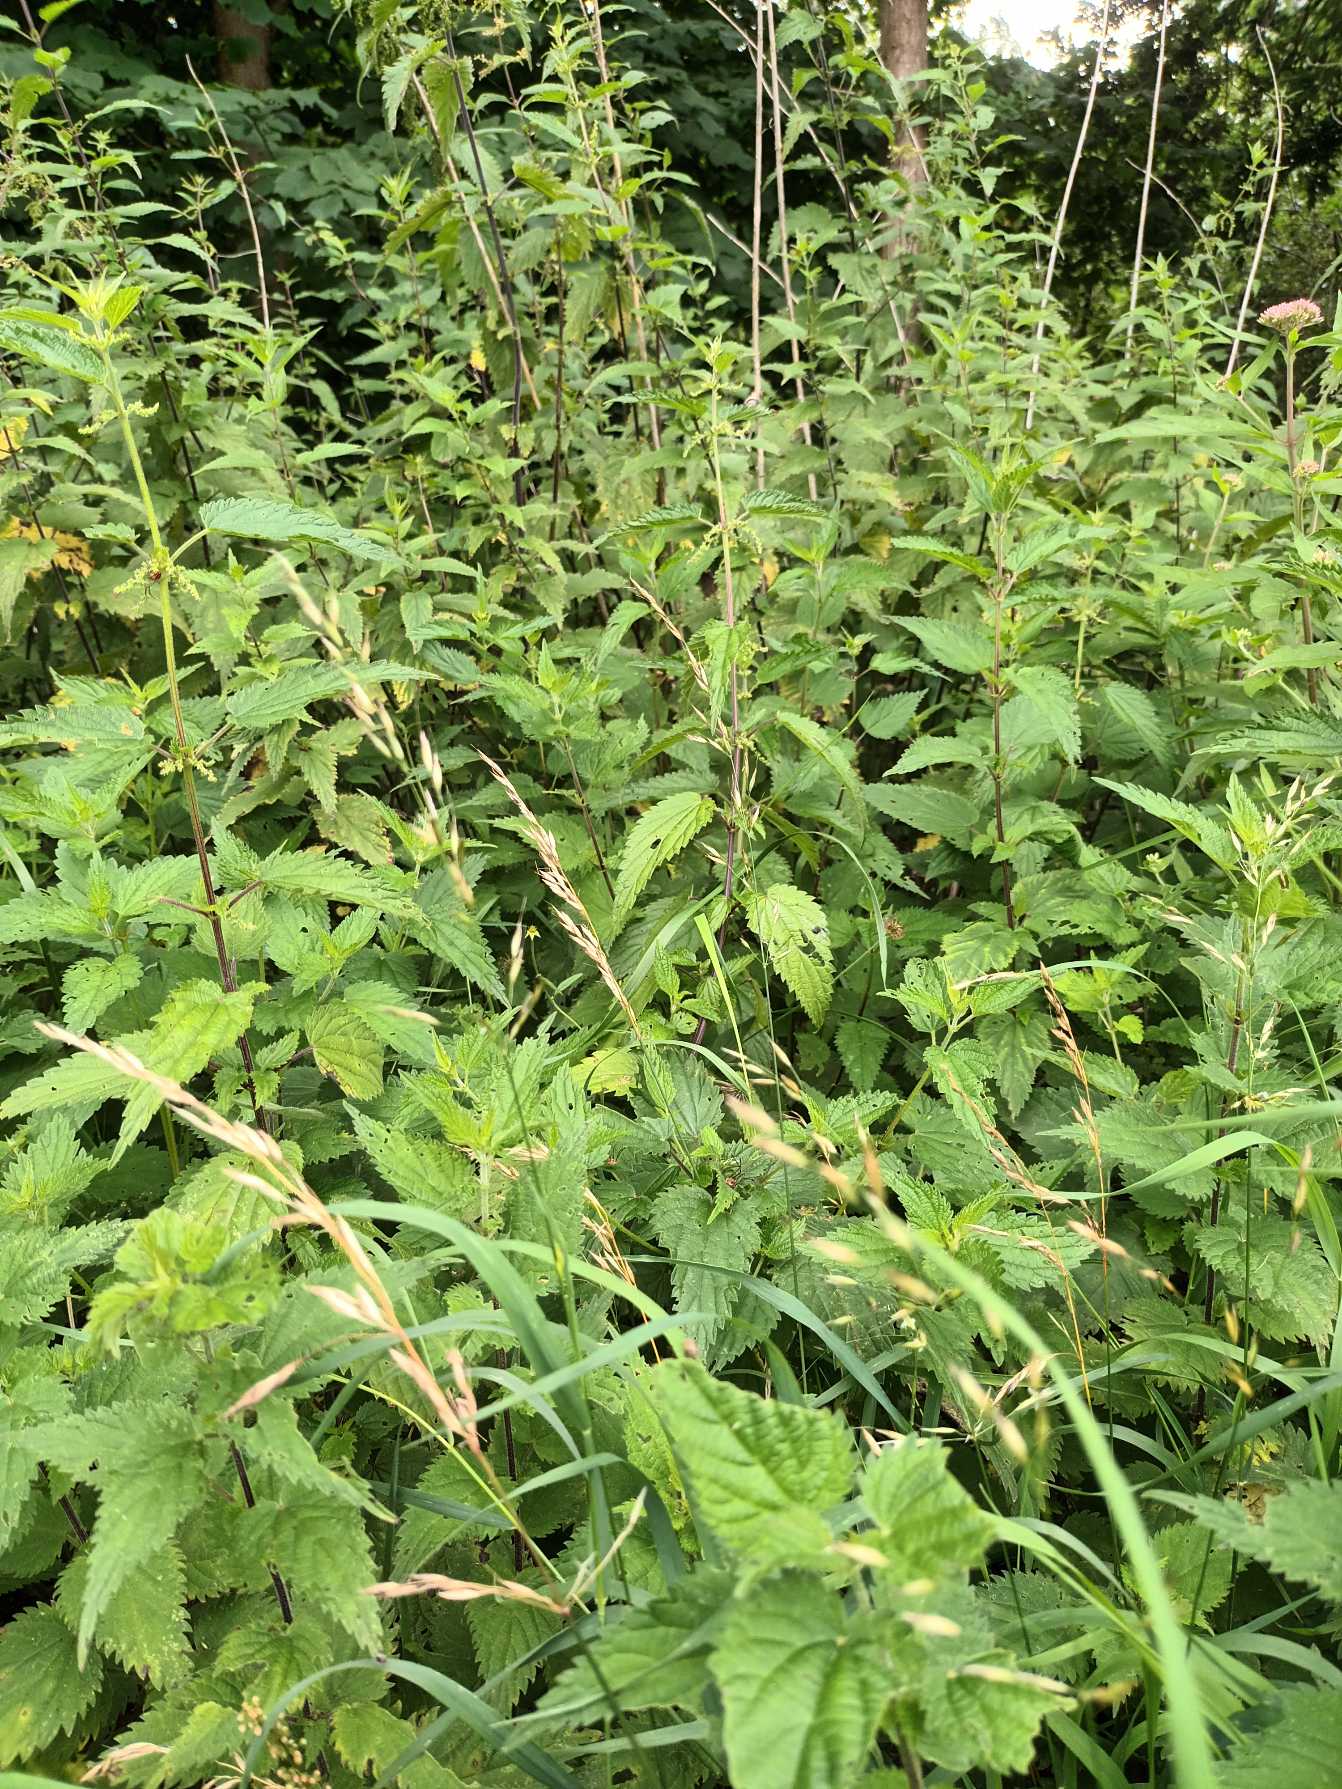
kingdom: Plantae
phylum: Tracheophyta
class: Liliopsida
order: Poales
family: Poaceae
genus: Arrhenatherum
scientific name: Arrhenatherum elatius
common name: Draphavre
